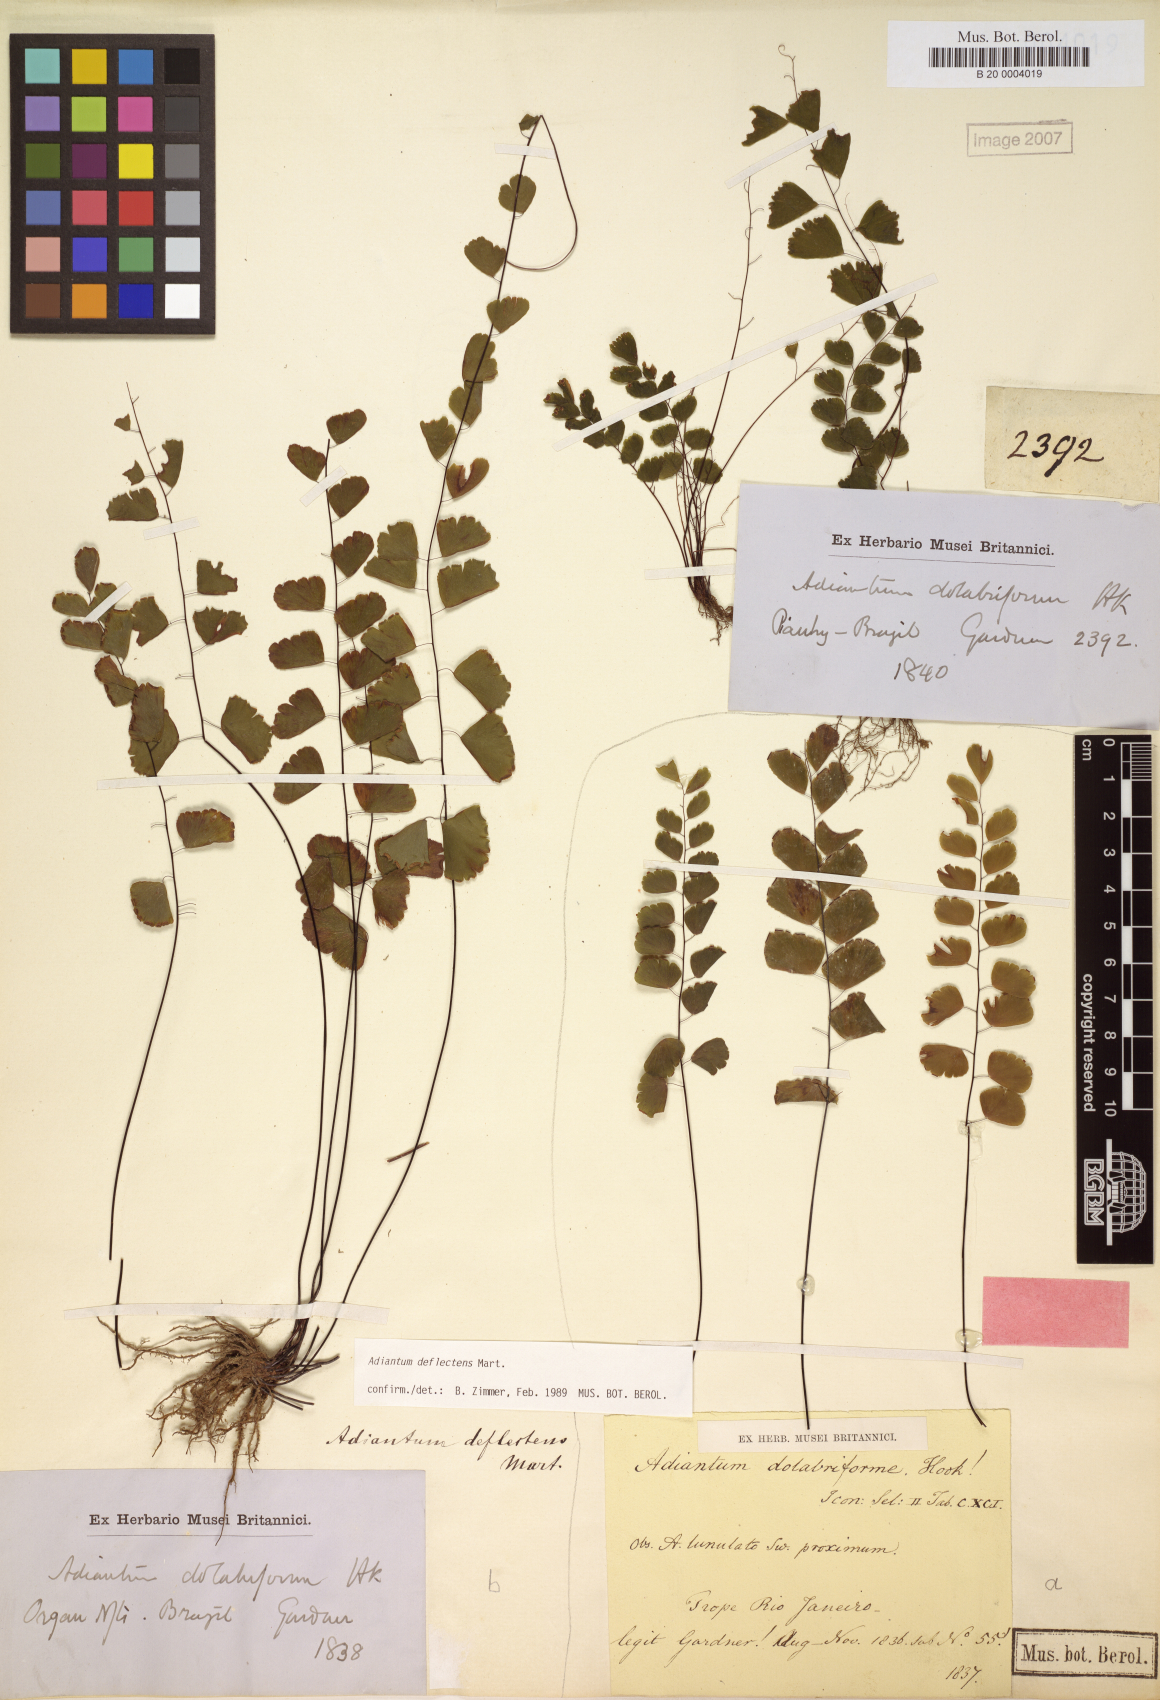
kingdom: Plantae
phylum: Tracheophyta
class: Polypodiopsida
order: Polypodiales
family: Pteridaceae
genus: Adiantum
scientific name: Adiantum deflectens
